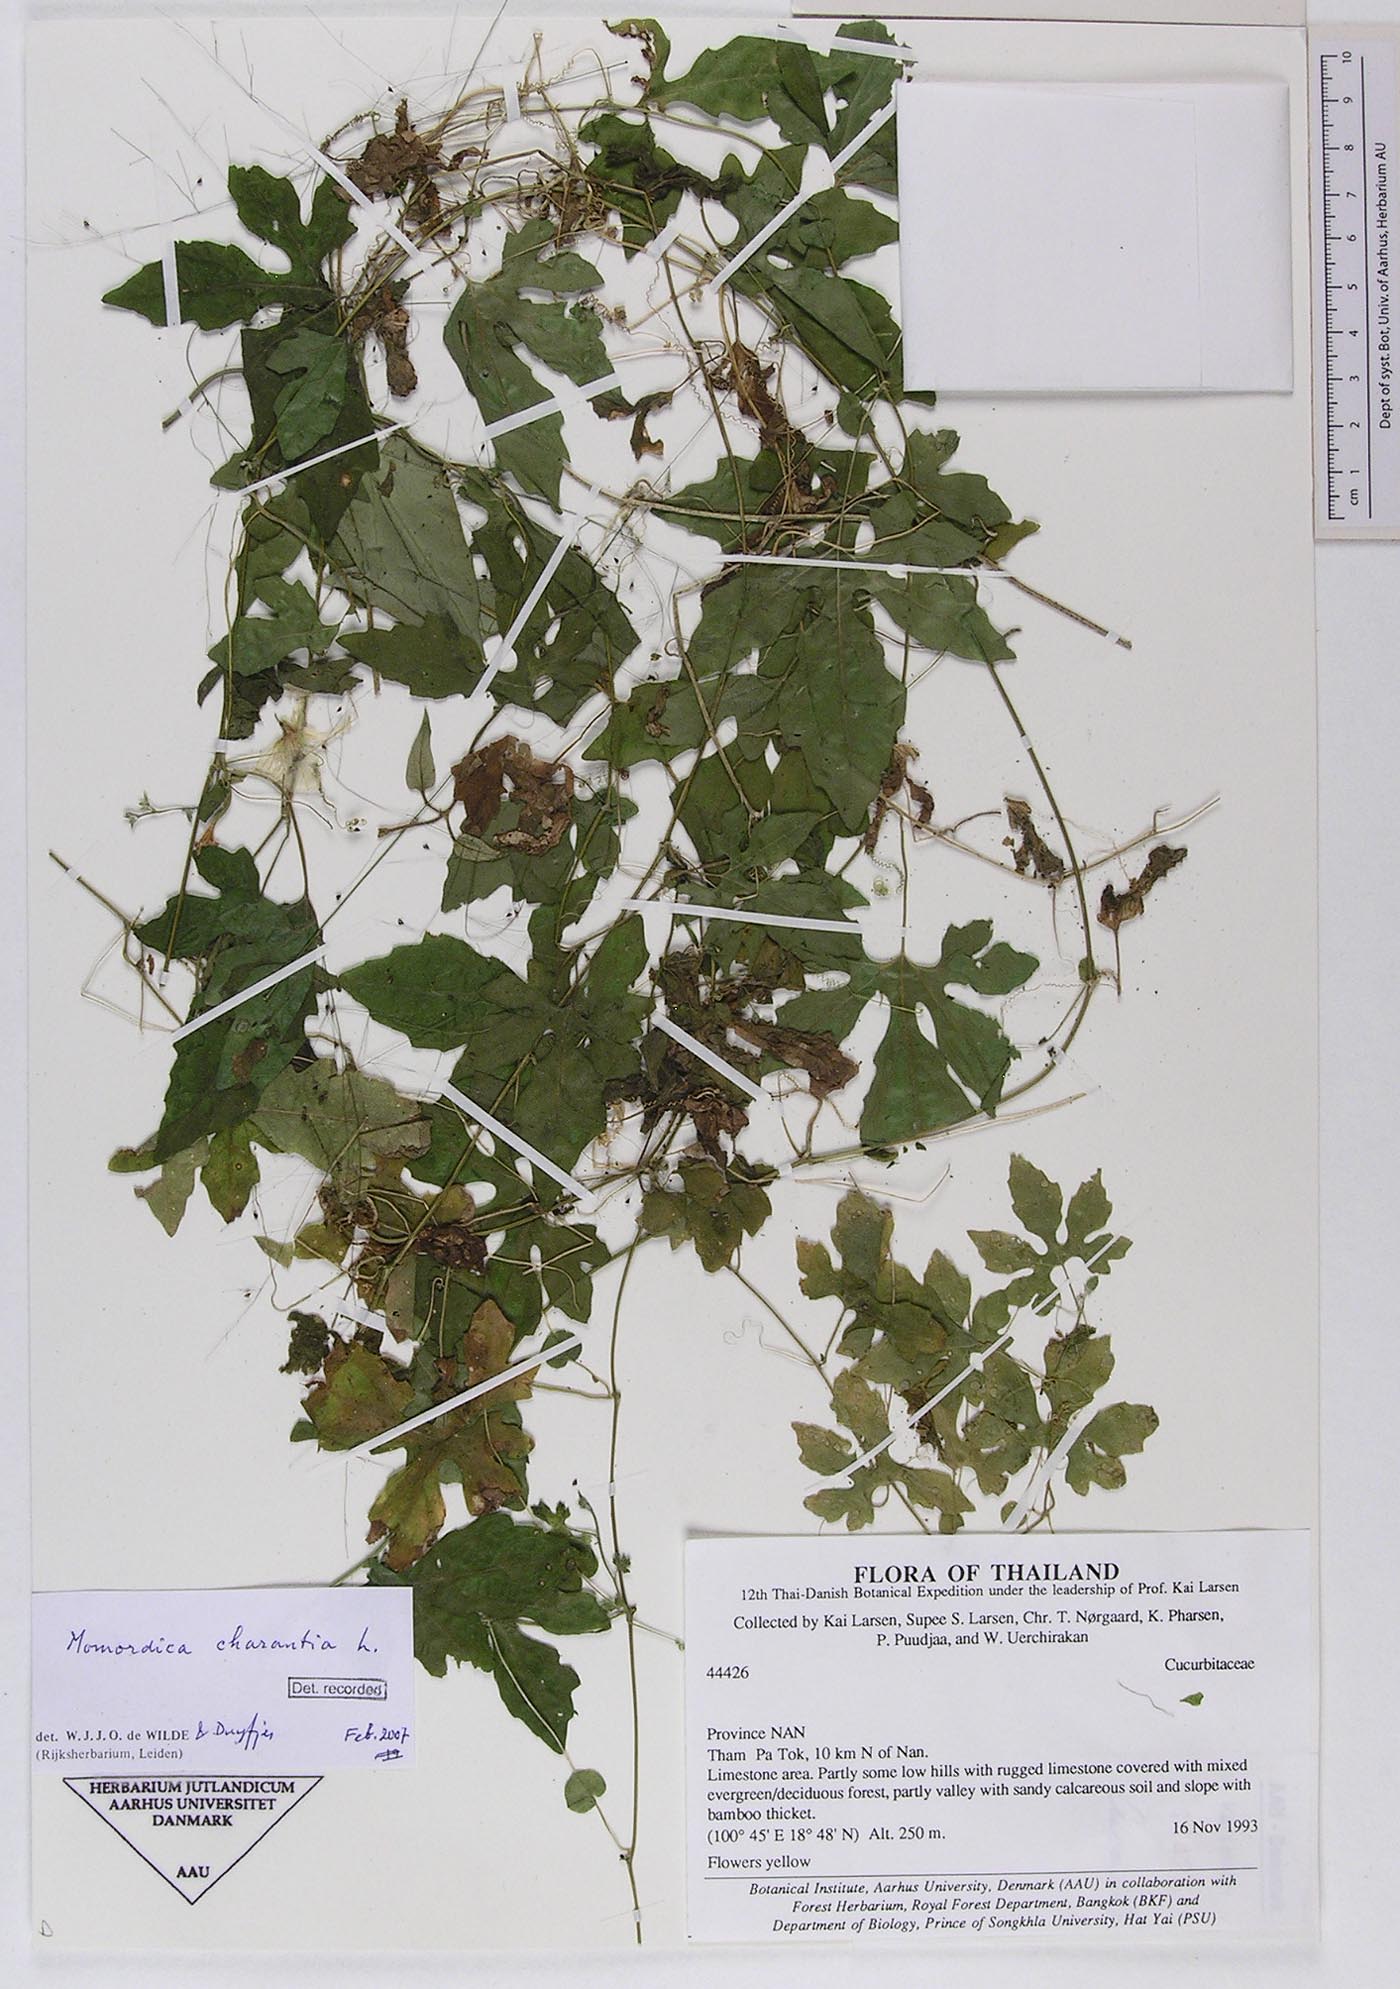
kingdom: Plantae
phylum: Tracheophyta
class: Magnoliopsida
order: Cucurbitales
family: Cucurbitaceae
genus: Momordica
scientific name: Momordica charantia
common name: Balsampear
